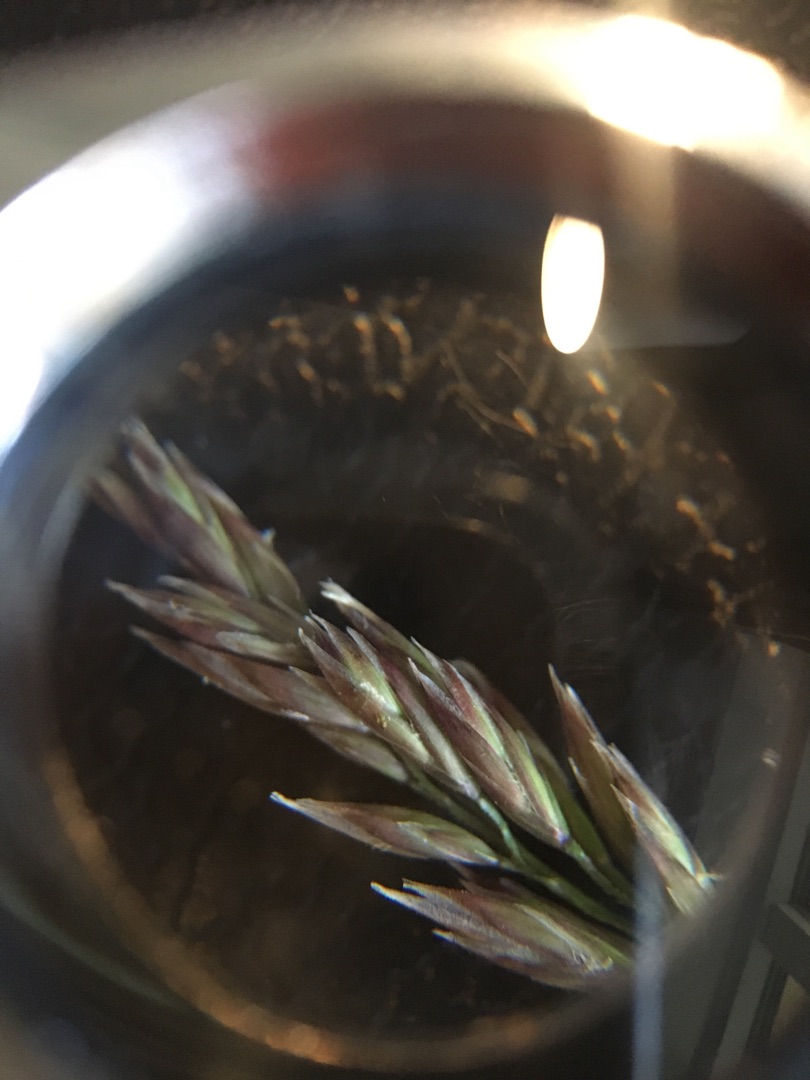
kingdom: Plantae
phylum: Tracheophyta
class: Liliopsida
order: Poales
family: Poaceae
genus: Festuca
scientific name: Festuca rubra
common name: Rød svingel
